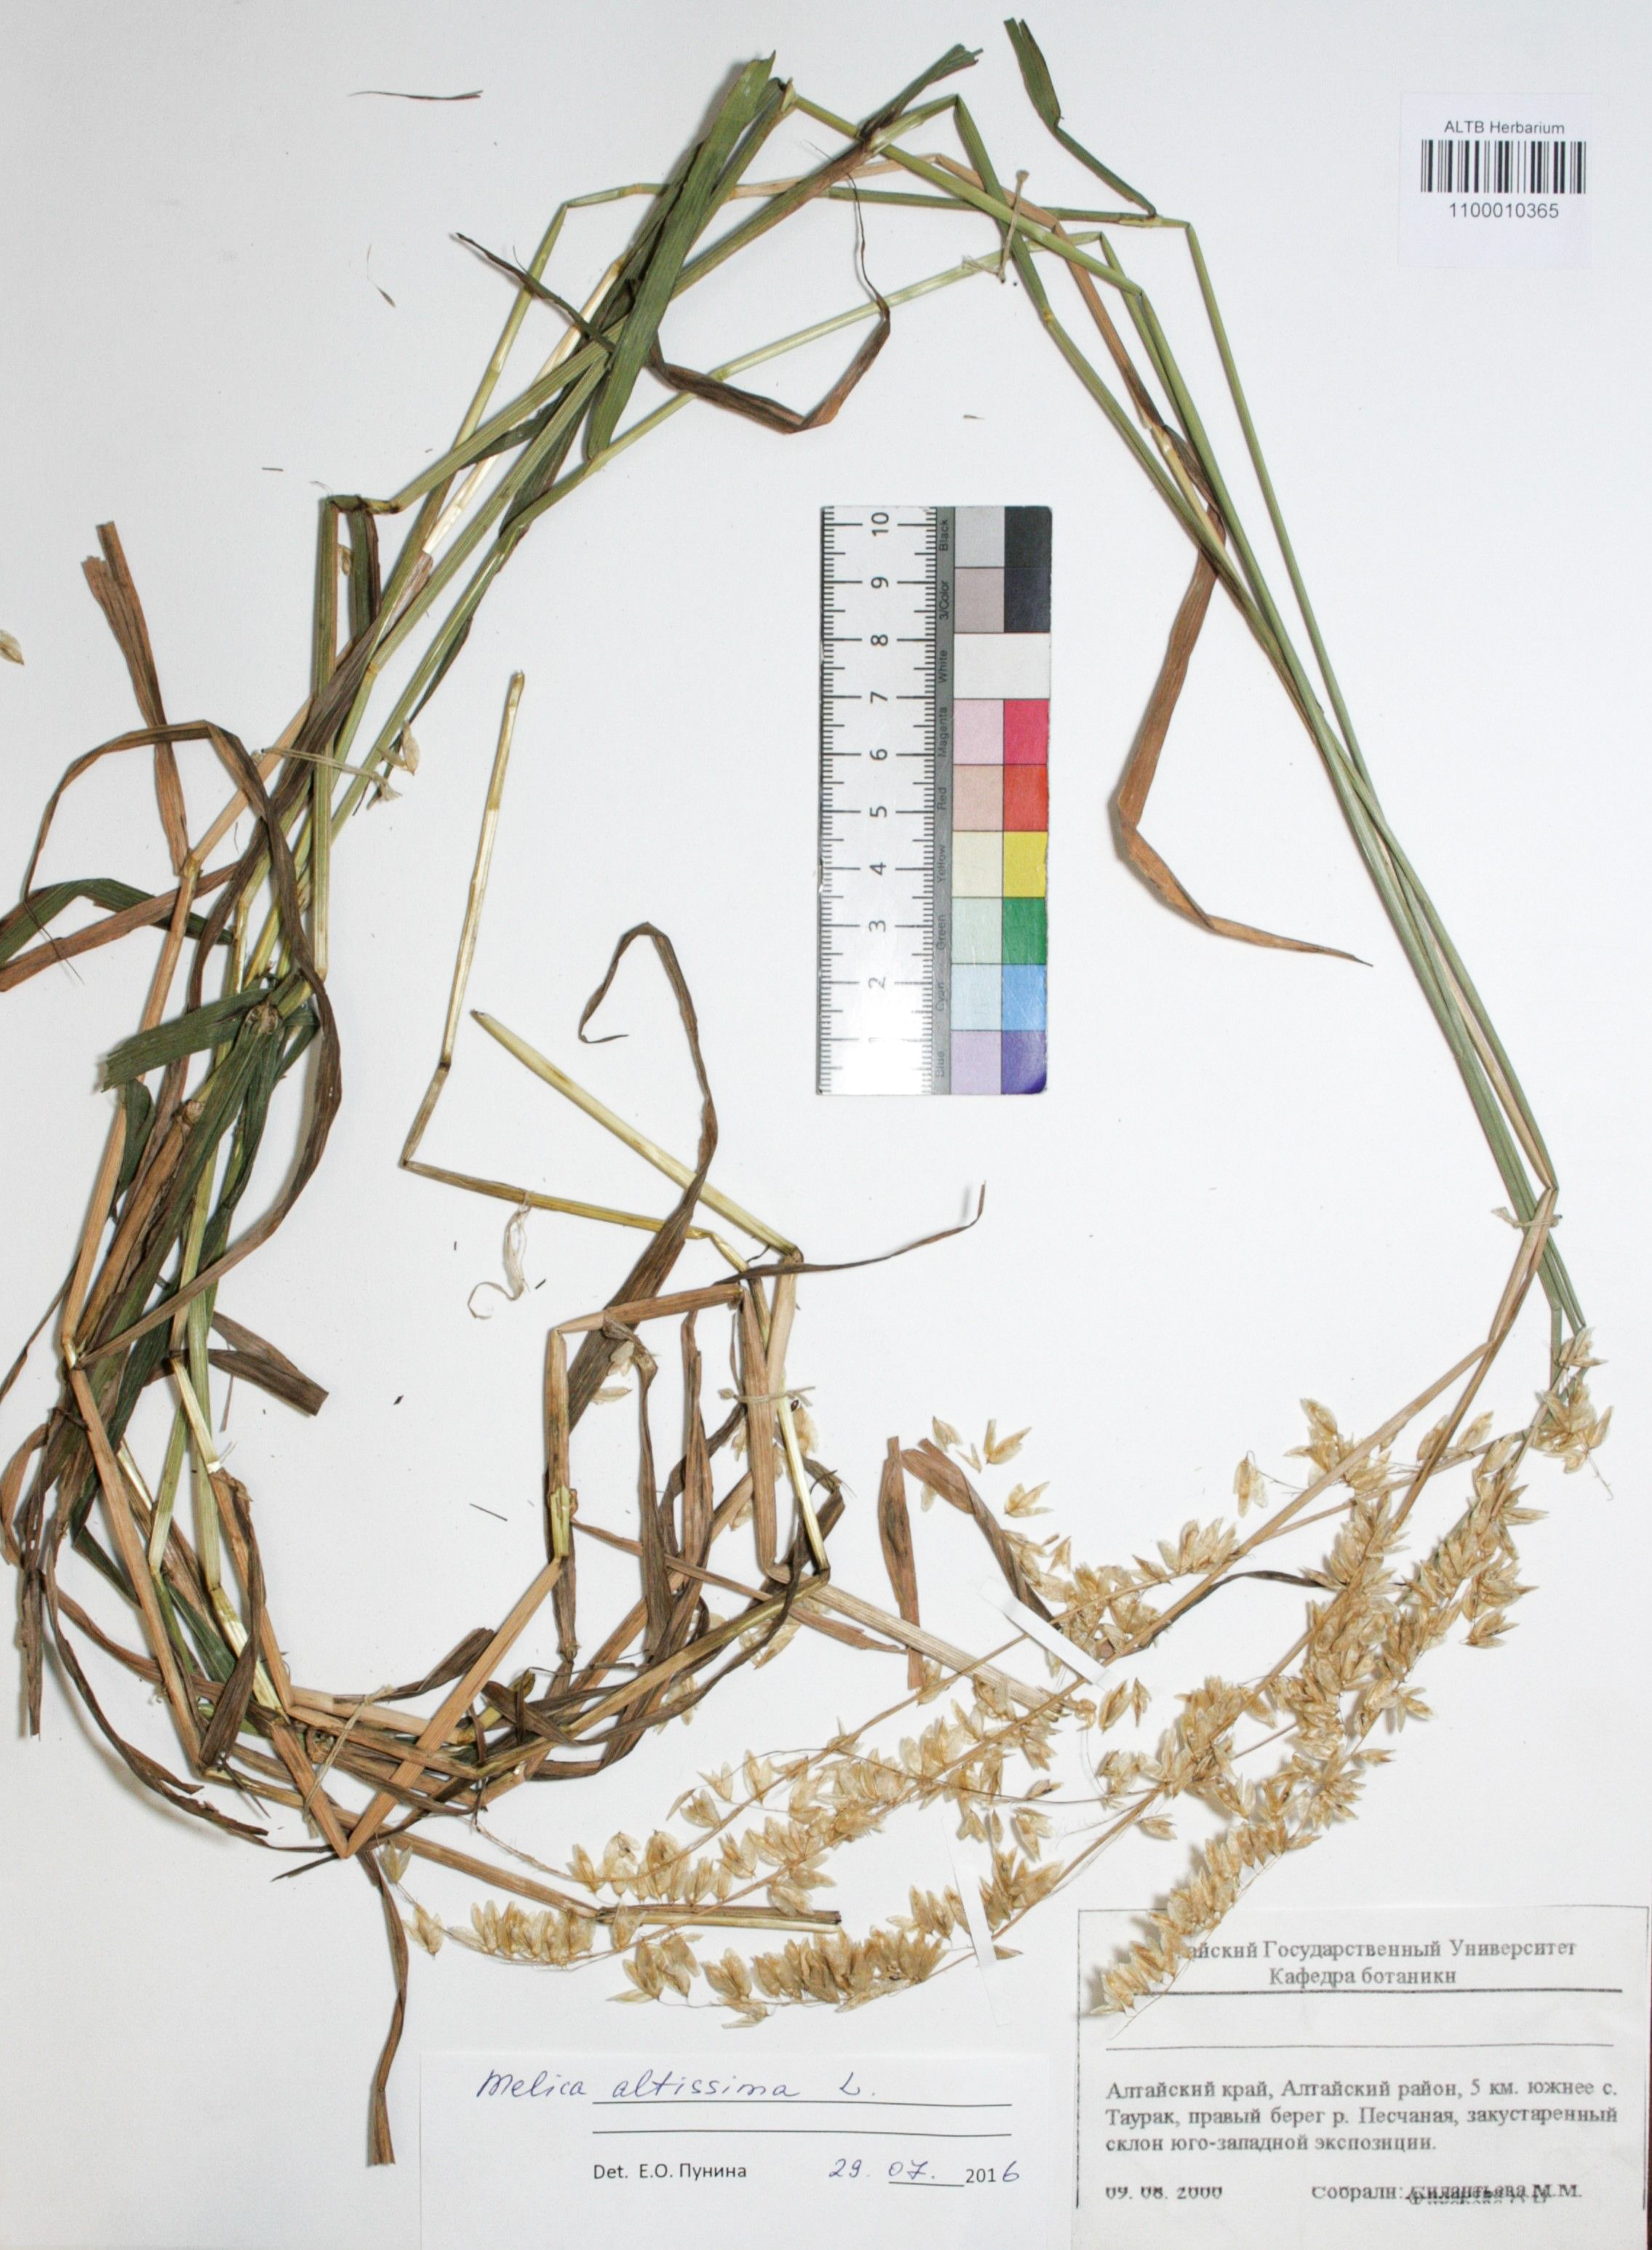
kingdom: Plantae
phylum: Tracheophyta
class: Liliopsida
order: Poales
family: Poaceae
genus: Melica
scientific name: Melica altissima
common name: Siberian melicgrass
